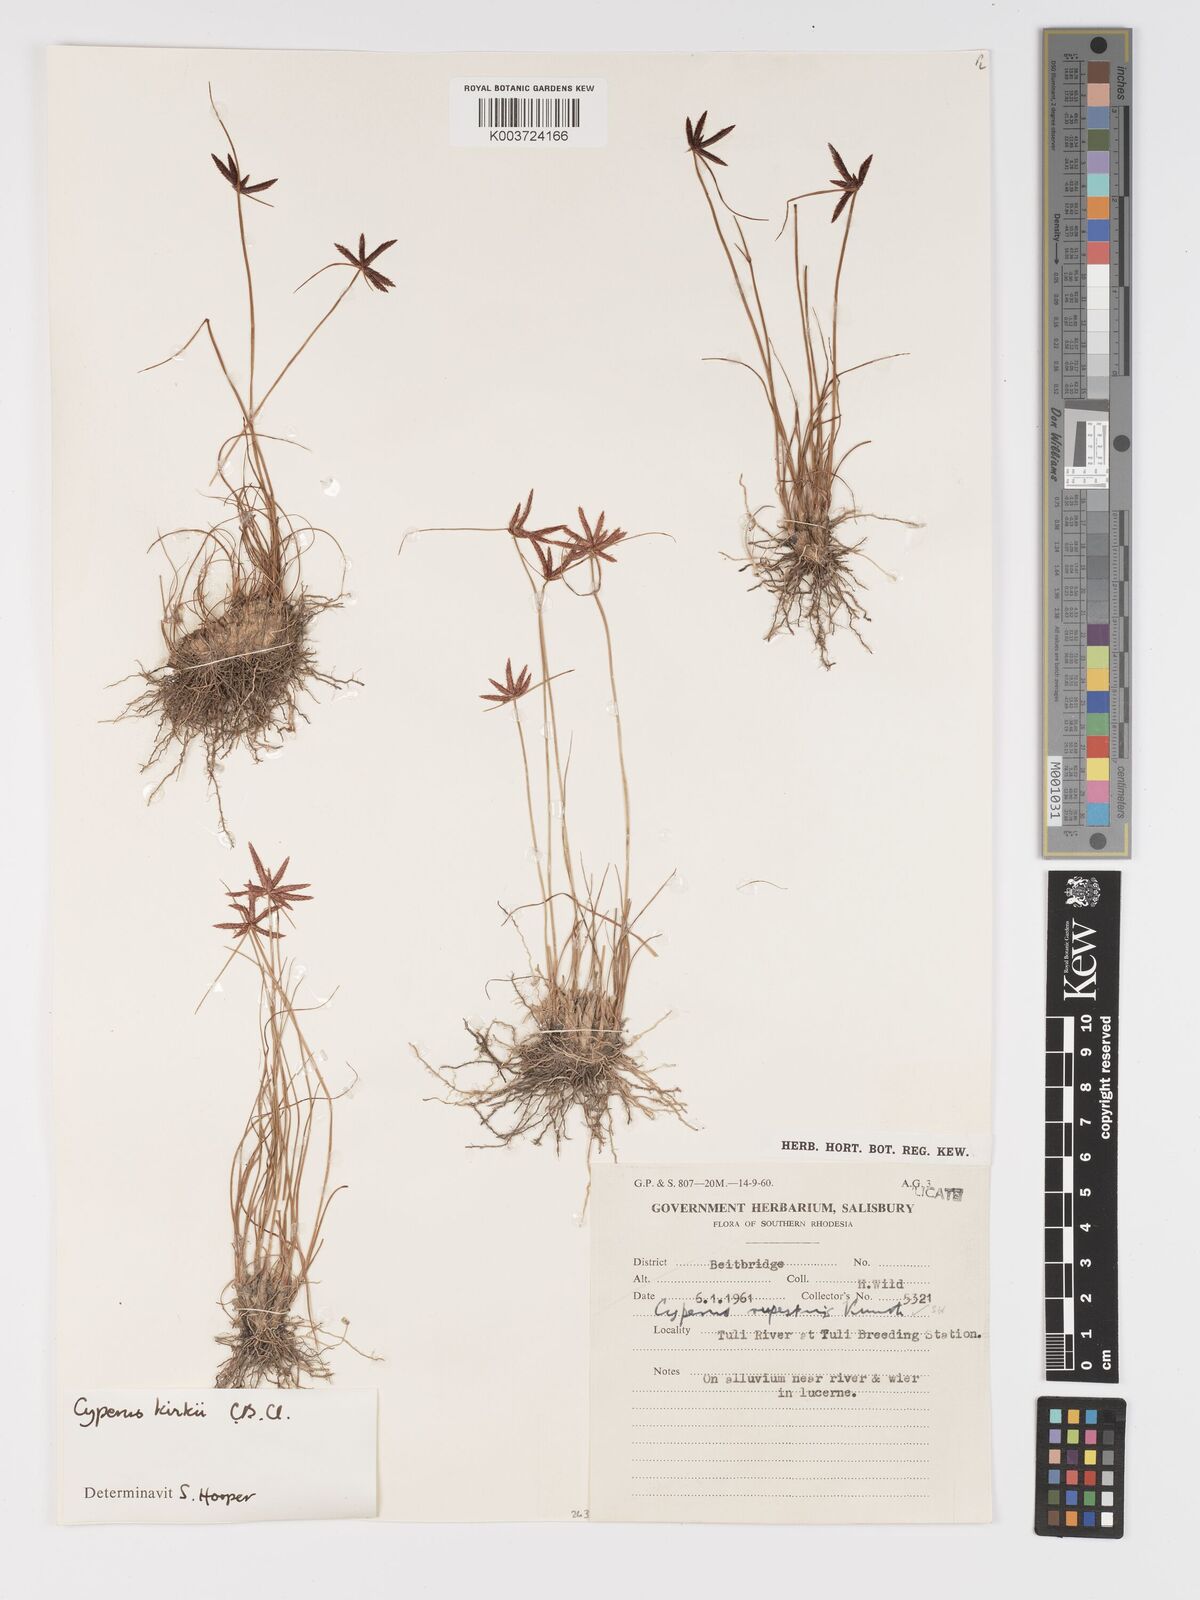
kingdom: Plantae
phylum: Tracheophyta
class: Liliopsida
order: Poales
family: Cyperaceae
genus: Cyperus
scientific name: Cyperus rupestris
